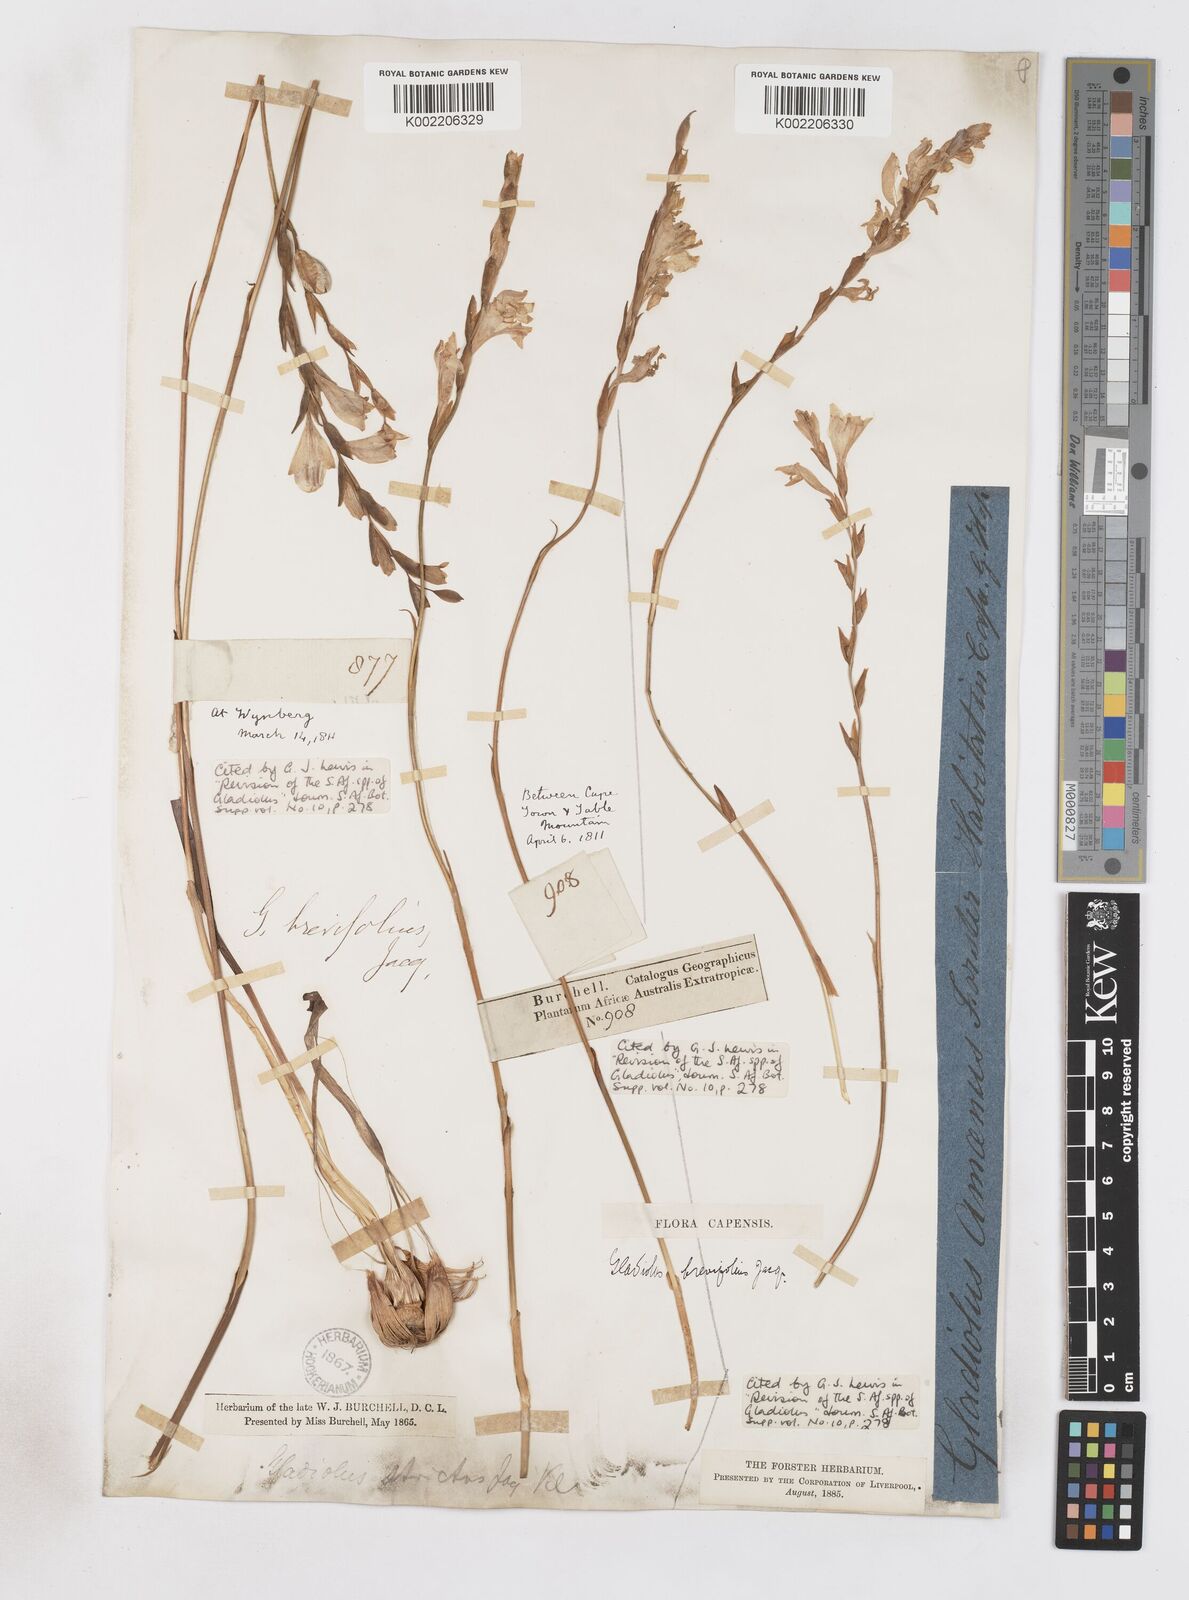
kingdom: Plantae
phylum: Tracheophyta
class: Liliopsida
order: Asparagales
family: Iridaceae
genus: Gladiolus
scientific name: Gladiolus brevifolius
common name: March pypie
